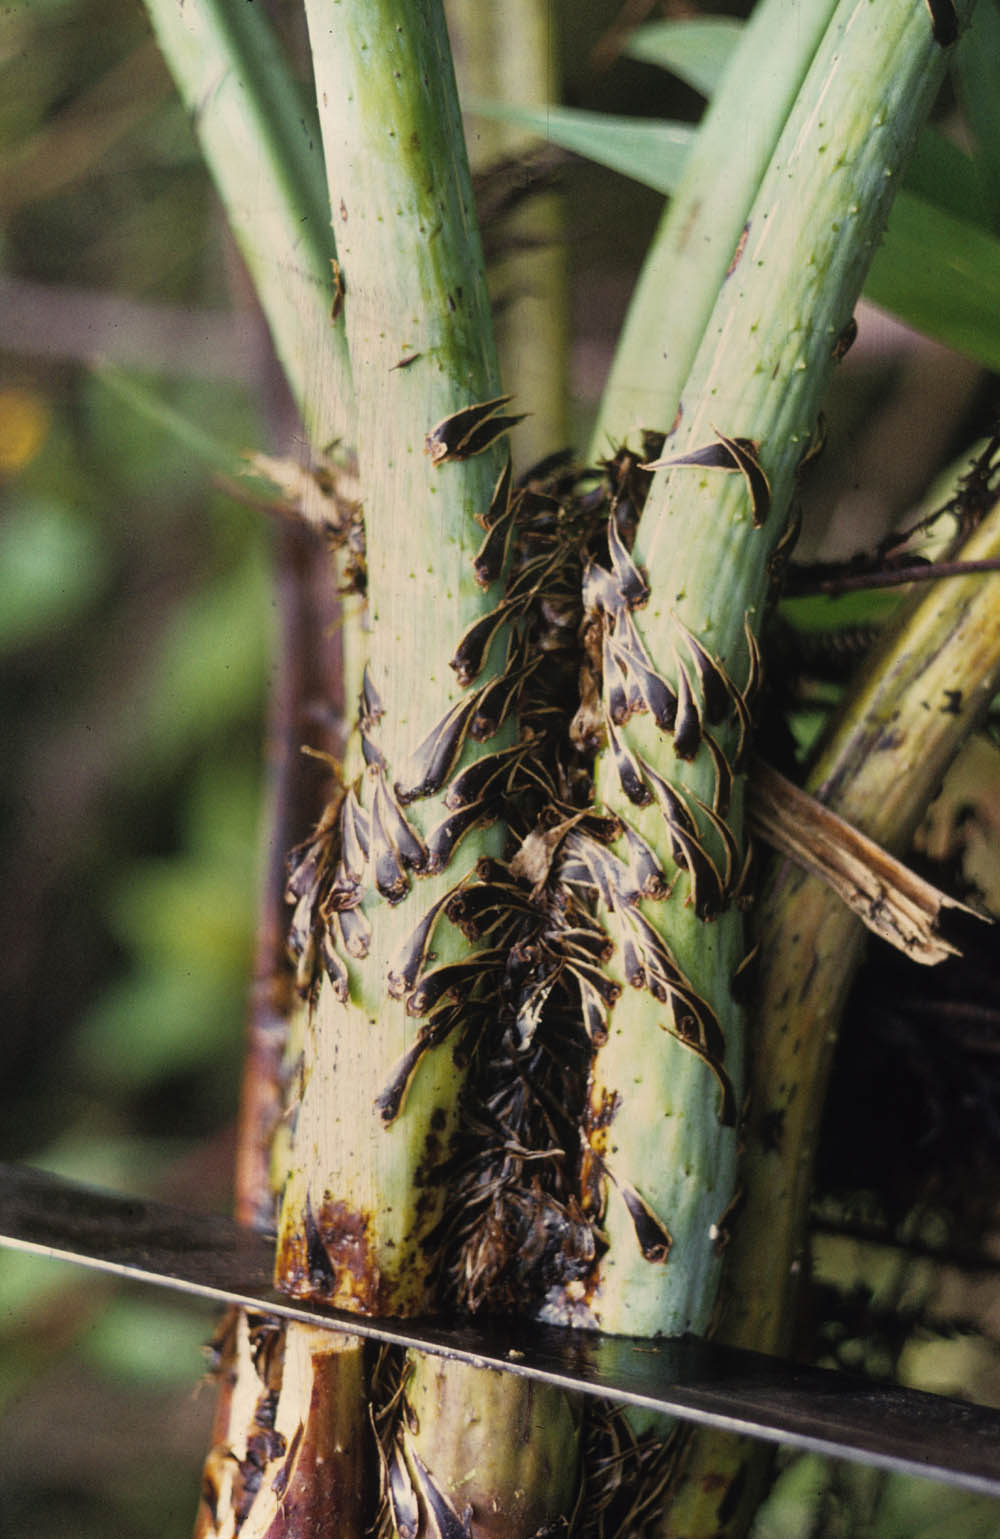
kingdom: Plantae
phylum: Tracheophyta
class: Polypodiopsida
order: Cyatheales
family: Cyatheaceae
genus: Cyathea
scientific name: Cyathea conjugata
